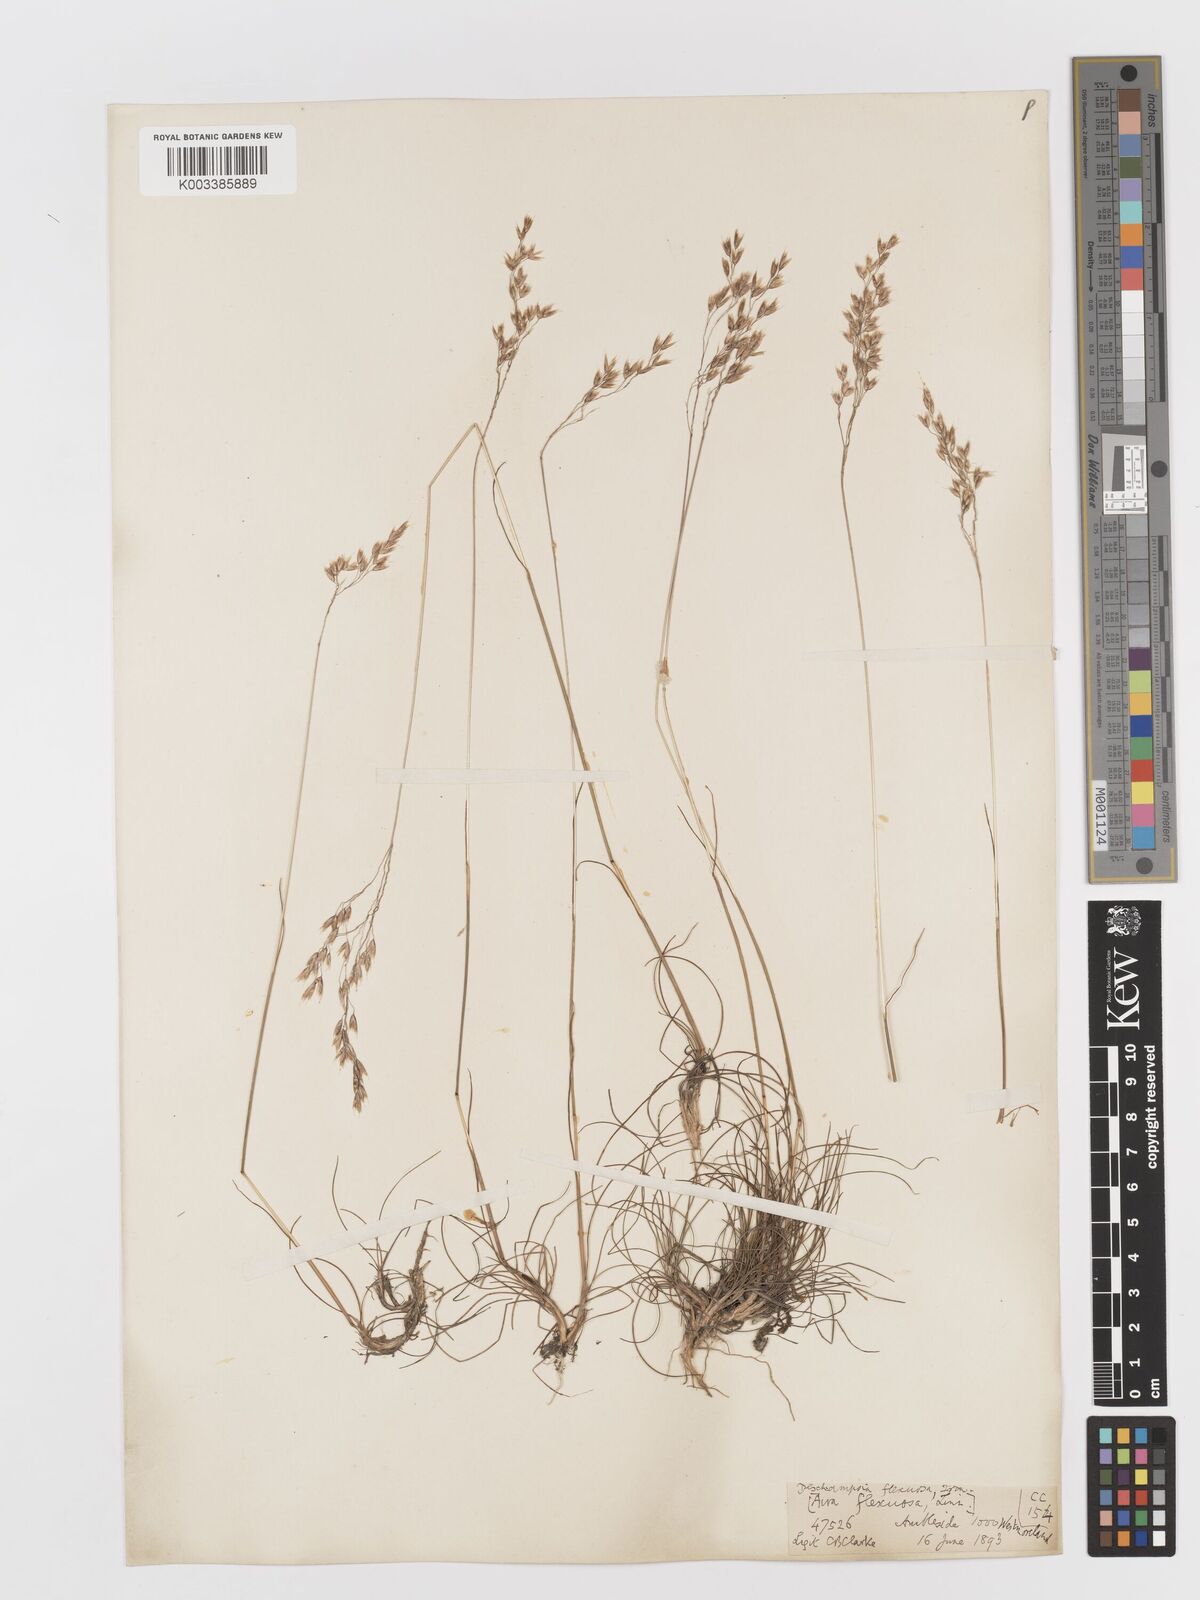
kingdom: Plantae
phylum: Tracheophyta
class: Liliopsida
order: Poales
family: Poaceae
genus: Avenella
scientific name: Avenella flexuosa
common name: Wavy hairgrass
